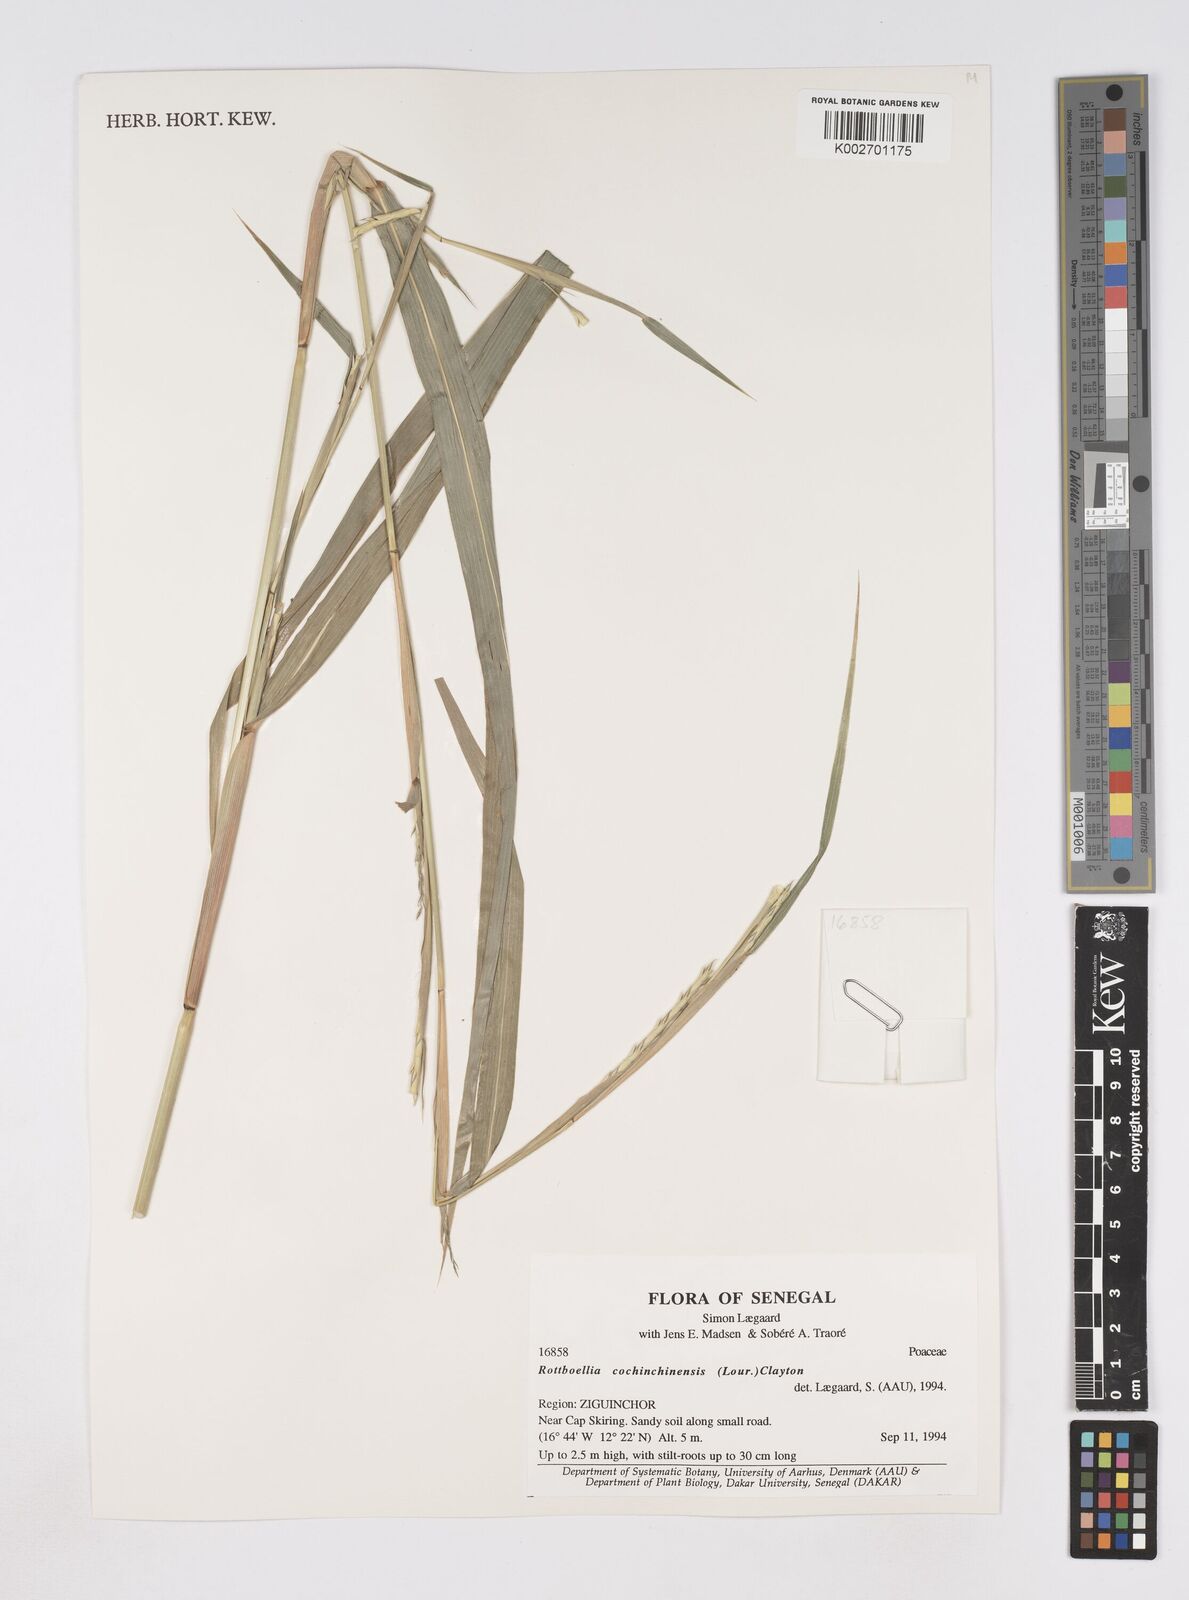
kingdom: Plantae
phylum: Tracheophyta
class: Liliopsida
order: Poales
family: Poaceae
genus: Ophiuros
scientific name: Ophiuros exaltatus
